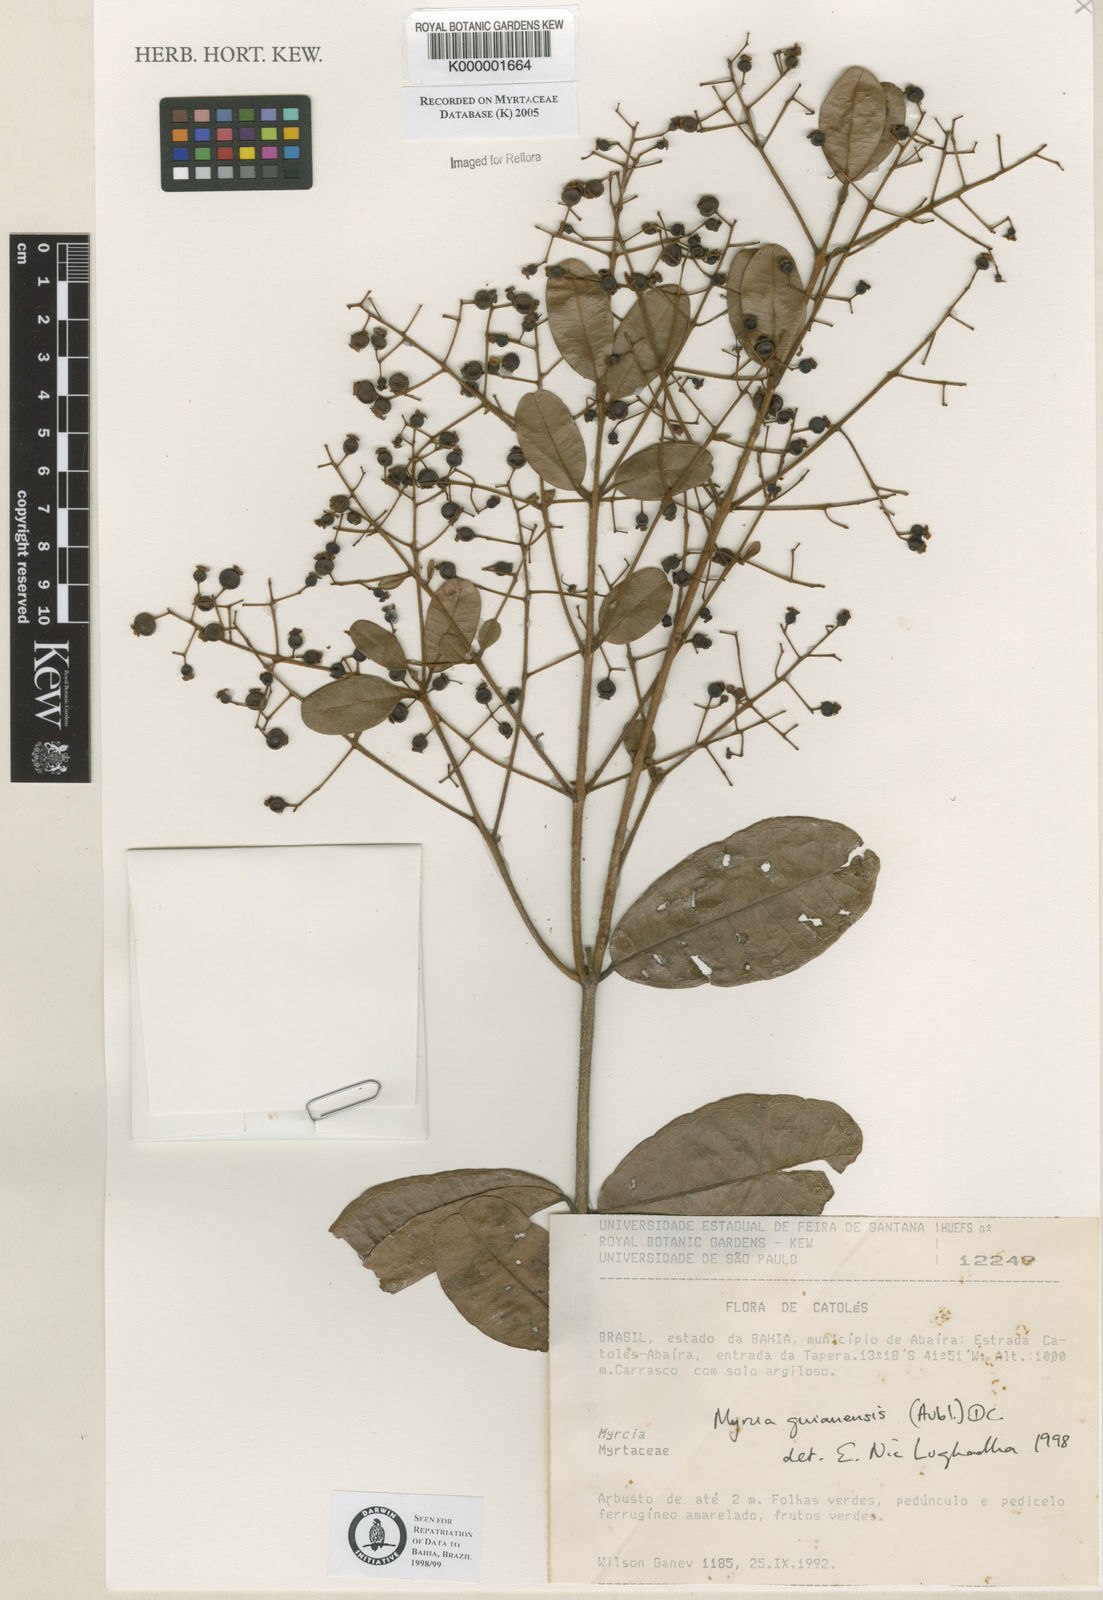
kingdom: Plantae
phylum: Tracheophyta
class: Magnoliopsida
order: Myrtales
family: Myrtaceae
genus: Myrcia
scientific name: Myrcia guianensis
